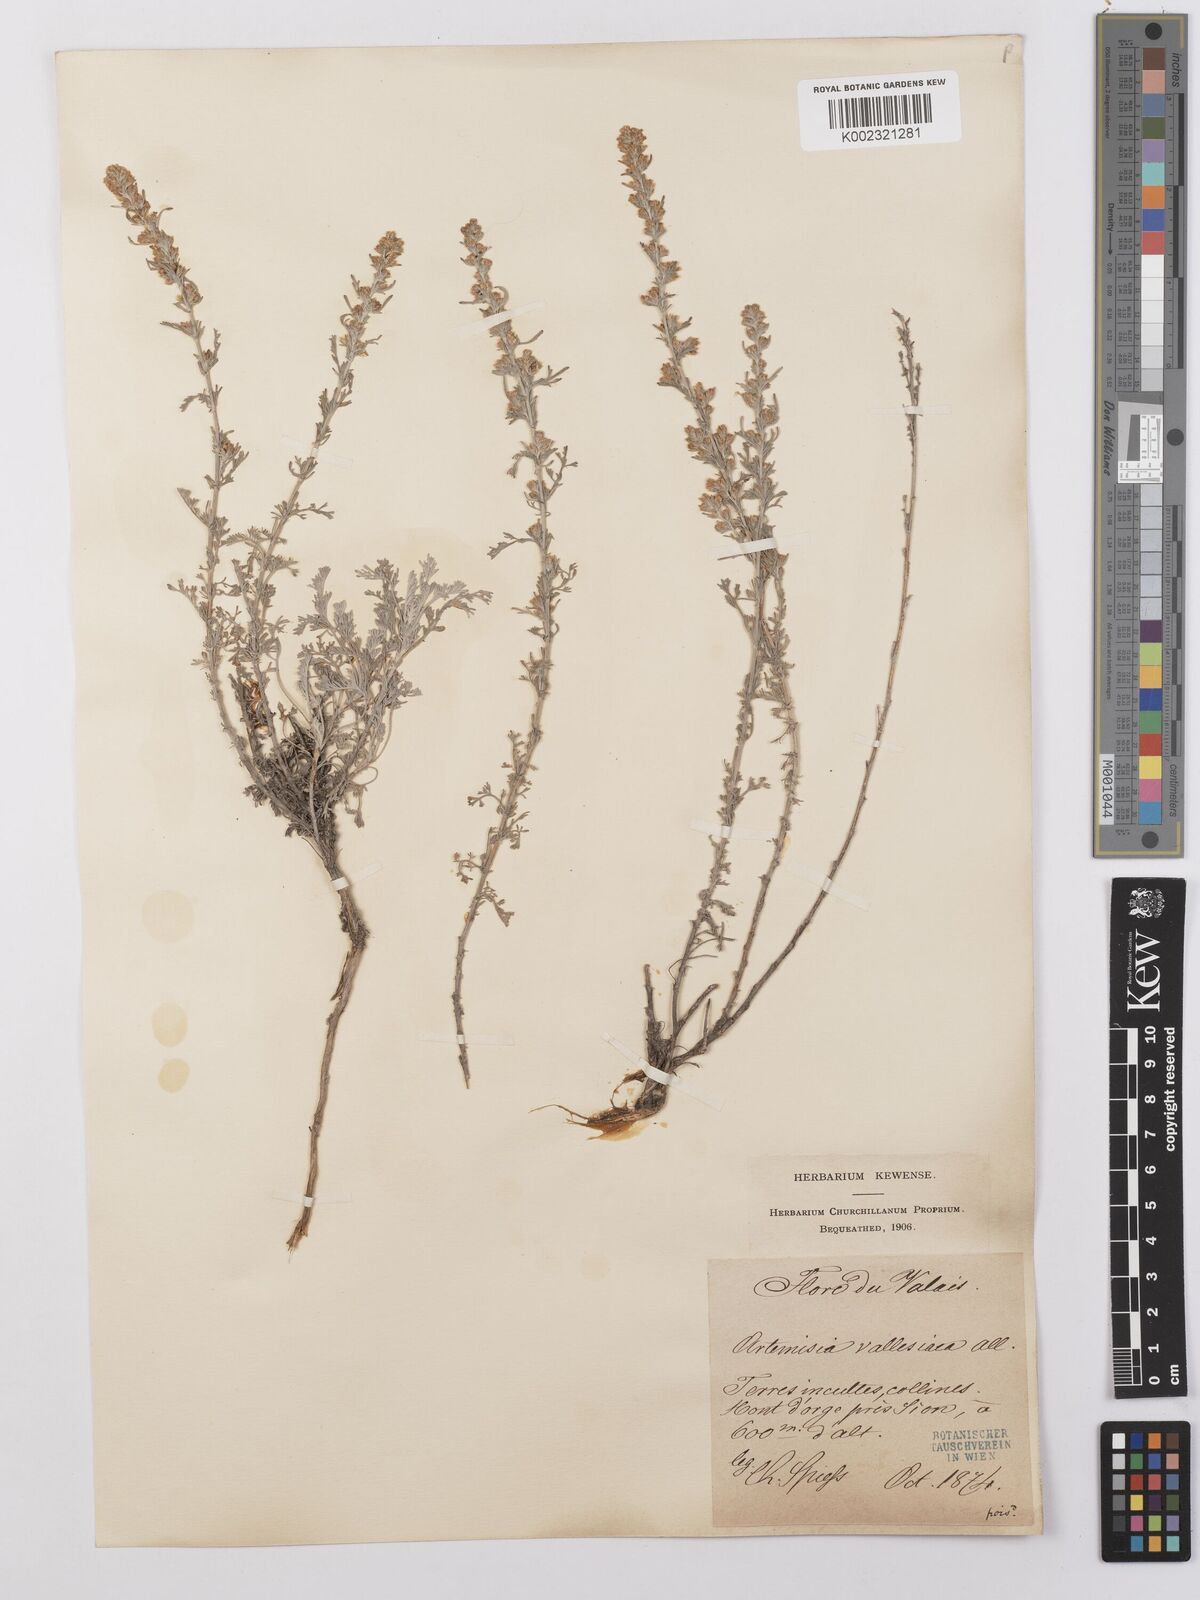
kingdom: Plantae
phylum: Tracheophyta
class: Magnoliopsida
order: Asterales
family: Asteraceae
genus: Artemisia
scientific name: Artemisia vallesiaca
